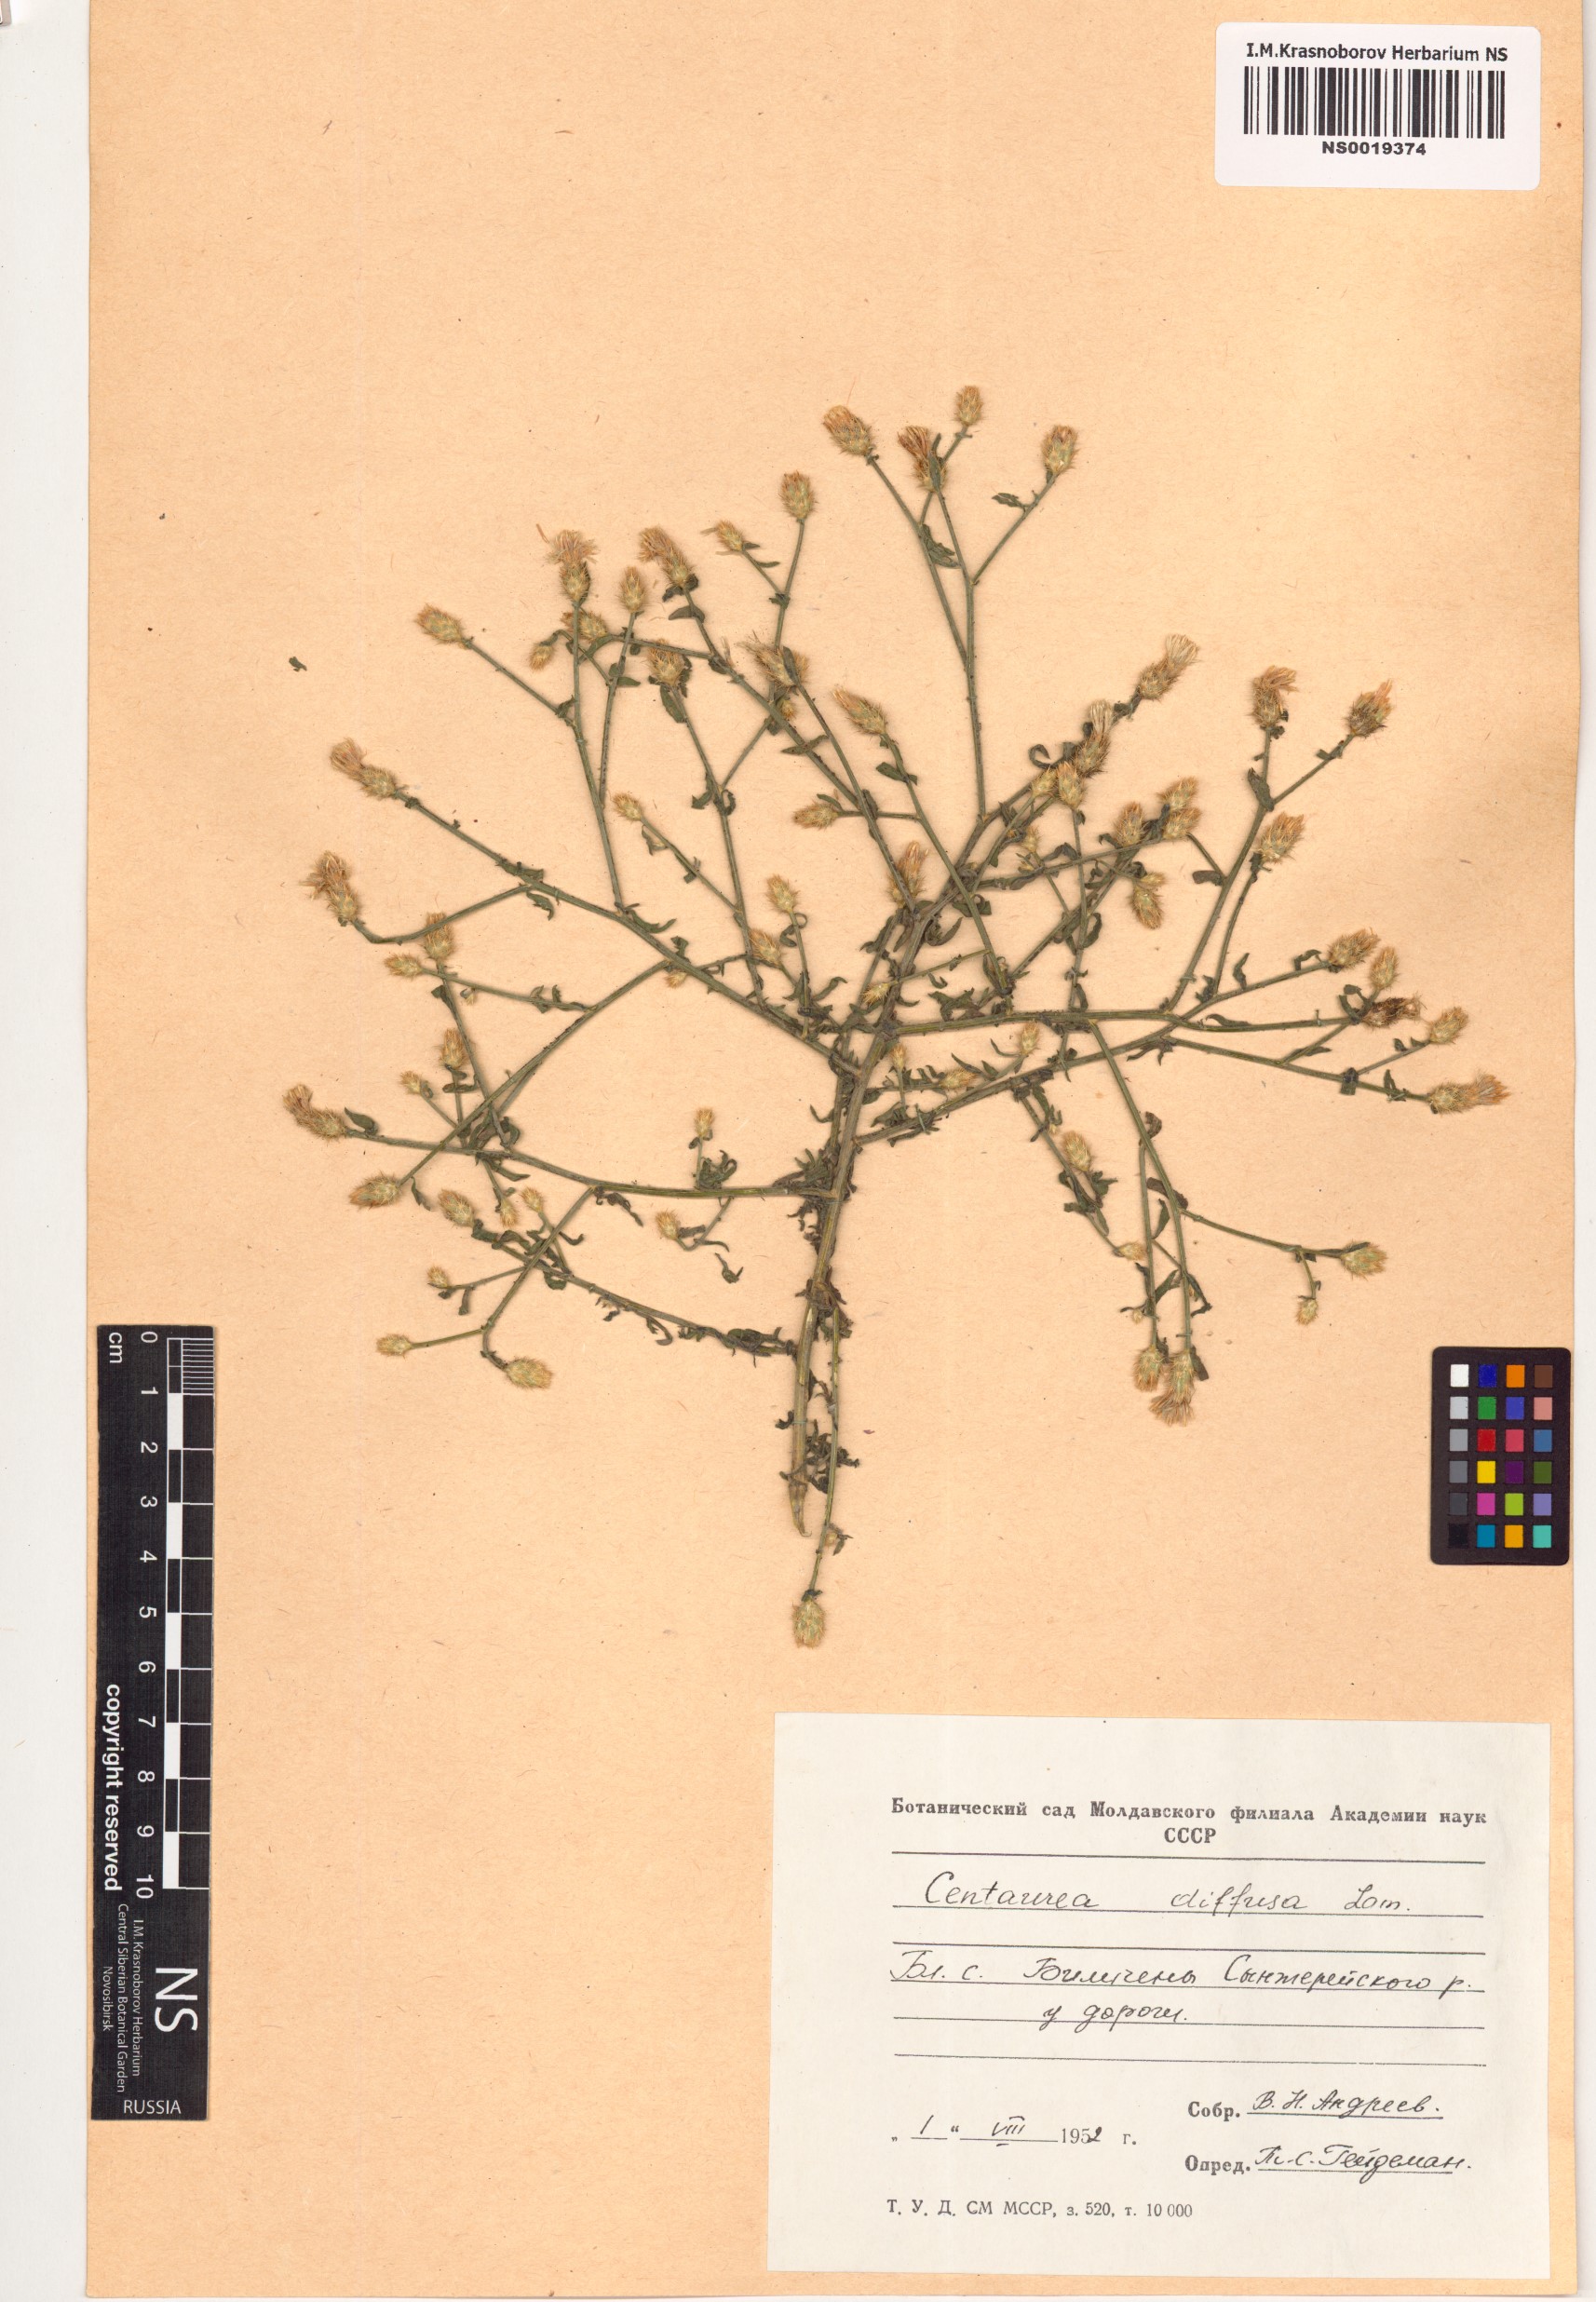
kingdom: Plantae
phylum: Tracheophyta
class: Magnoliopsida
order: Asterales
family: Asteraceae
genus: Centaurea
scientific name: Centaurea diffusa
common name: Diffuse knapweed
